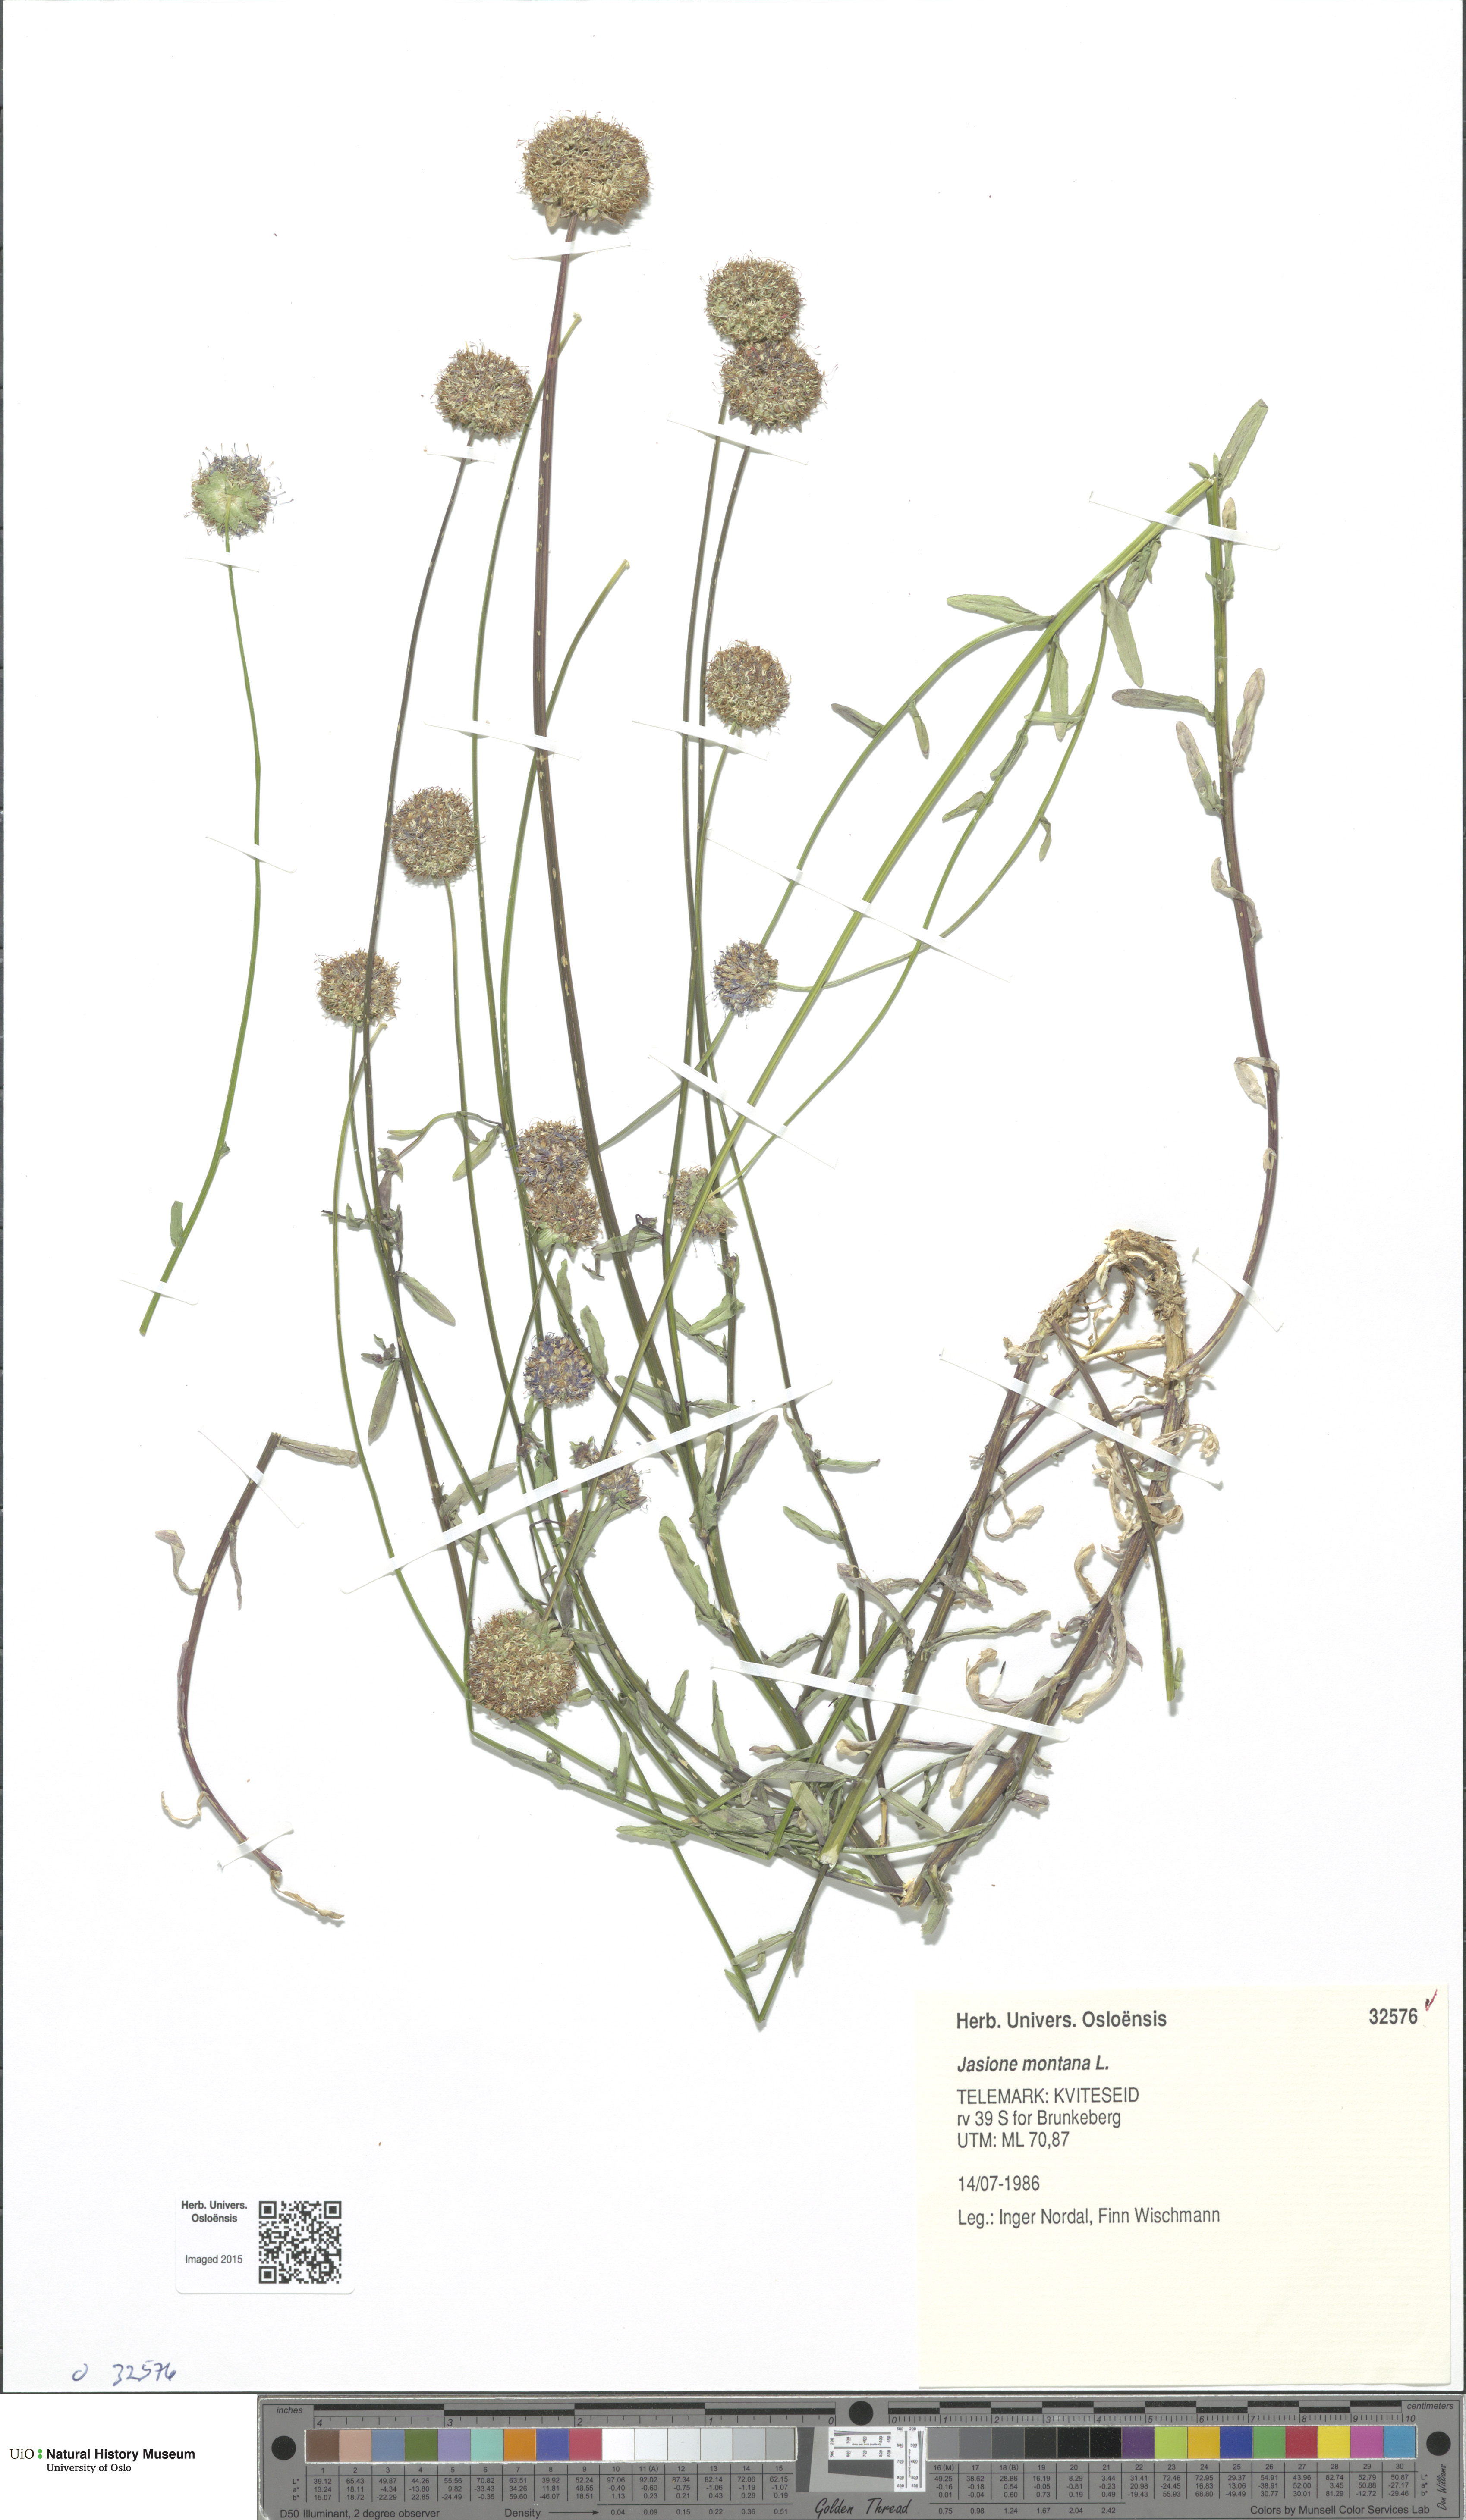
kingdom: Plantae
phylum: Tracheophyta
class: Magnoliopsida
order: Asterales
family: Campanulaceae
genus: Jasione
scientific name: Jasione montana
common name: Sheep's-bit
